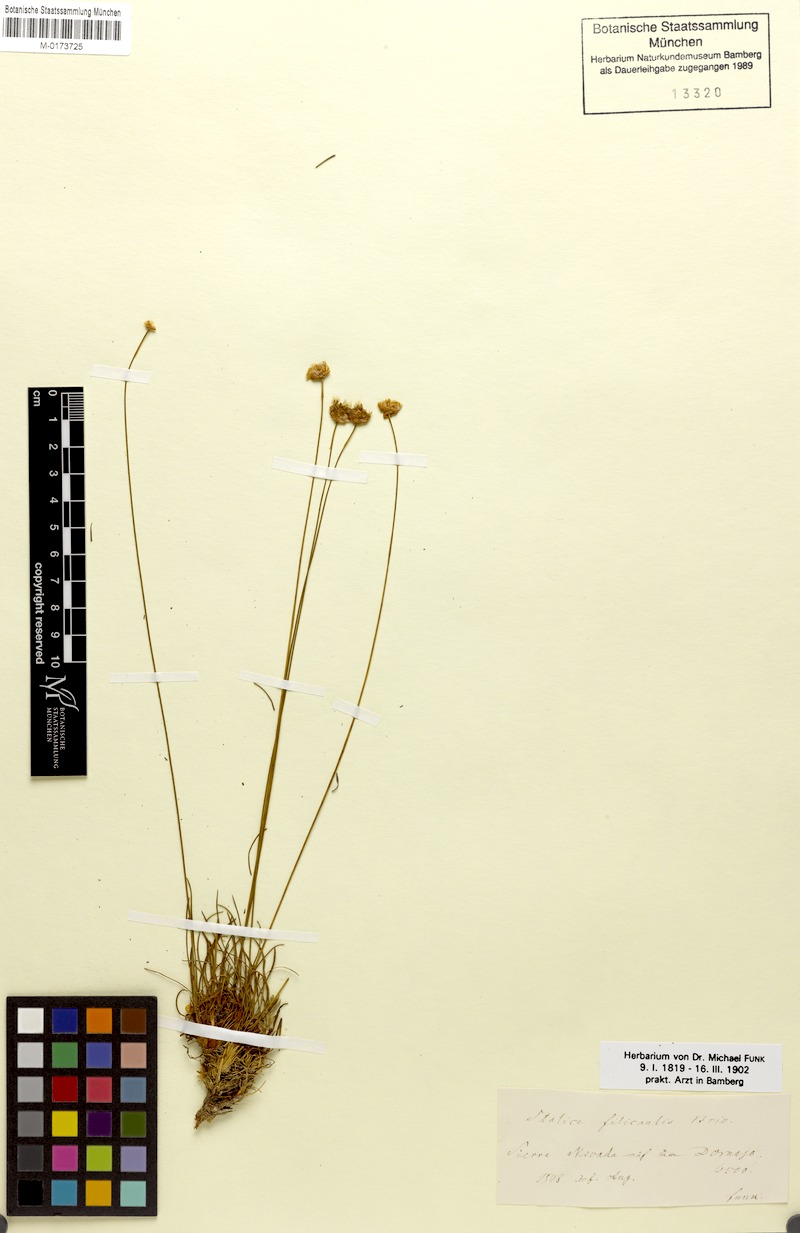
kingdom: Plantae
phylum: Tracheophyta
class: Magnoliopsida
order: Caryophyllales
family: Plumbaginaceae
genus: Armeria
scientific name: Armeria filicaulis
